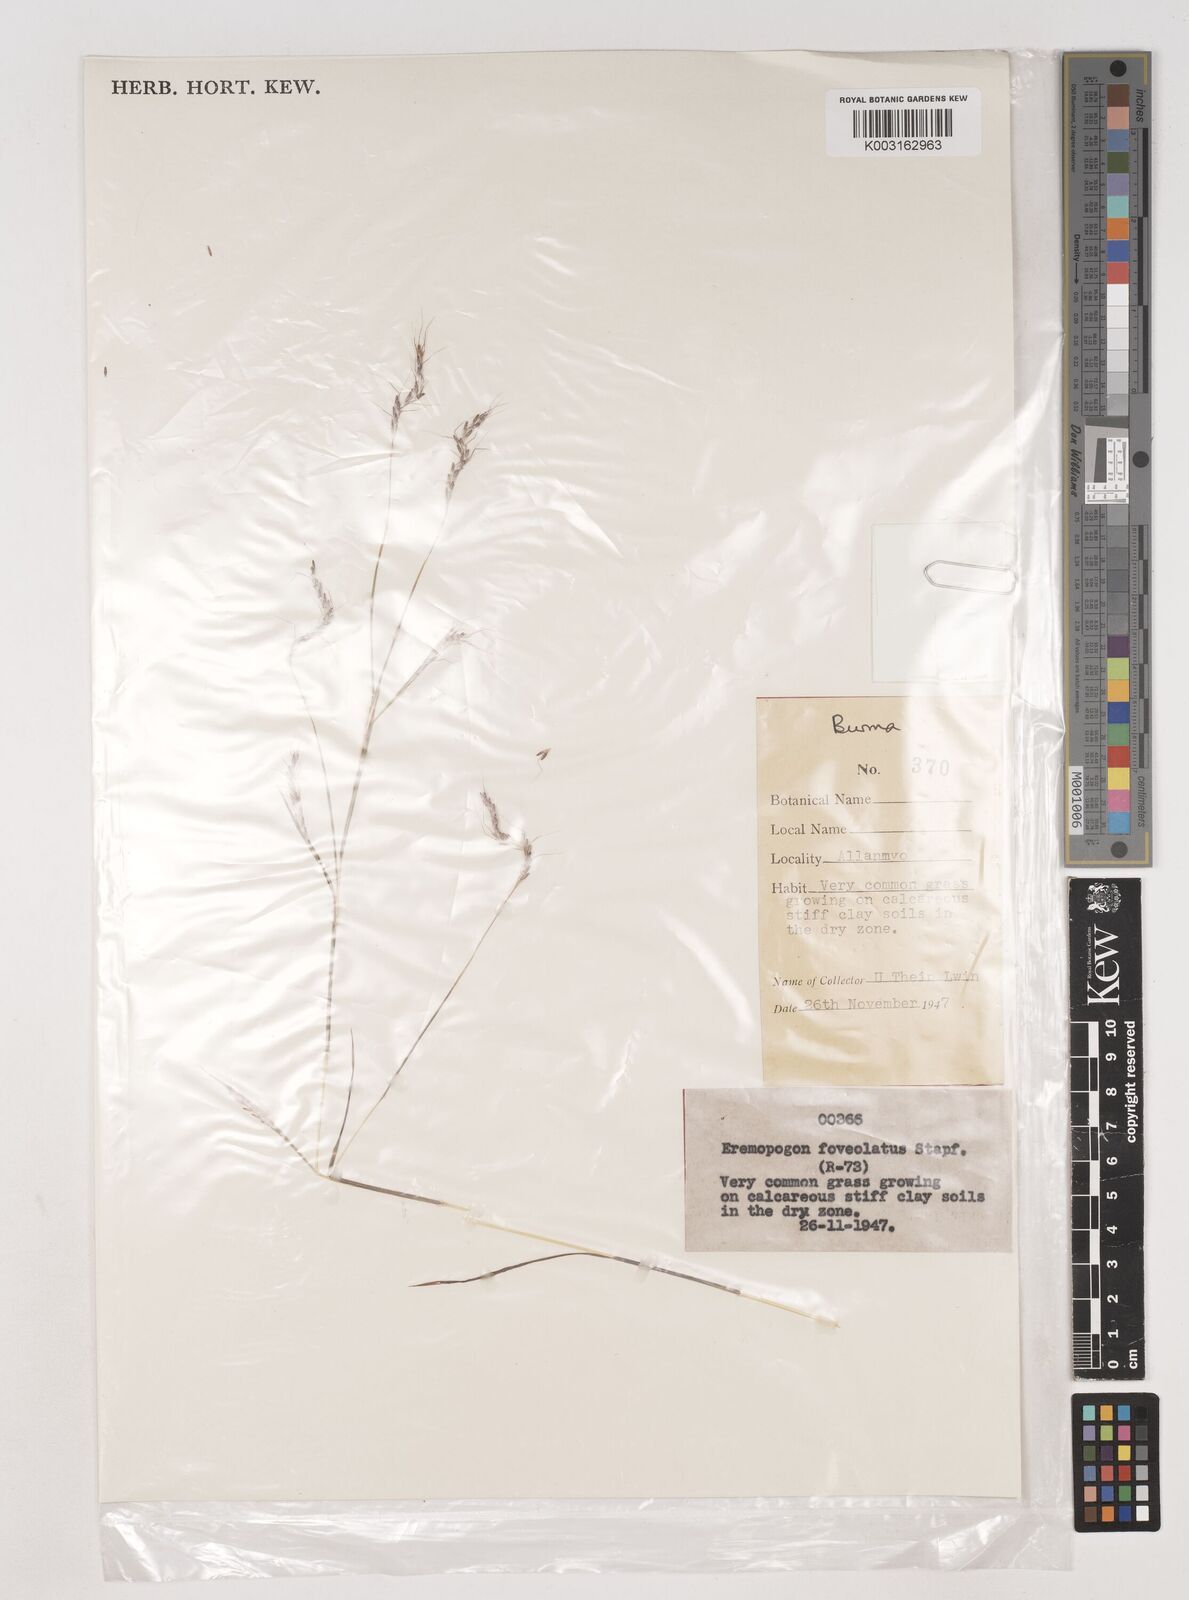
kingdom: Plantae
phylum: Tracheophyta
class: Liliopsida
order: Poales
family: Poaceae
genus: Dichanthium
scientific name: Dichanthium
